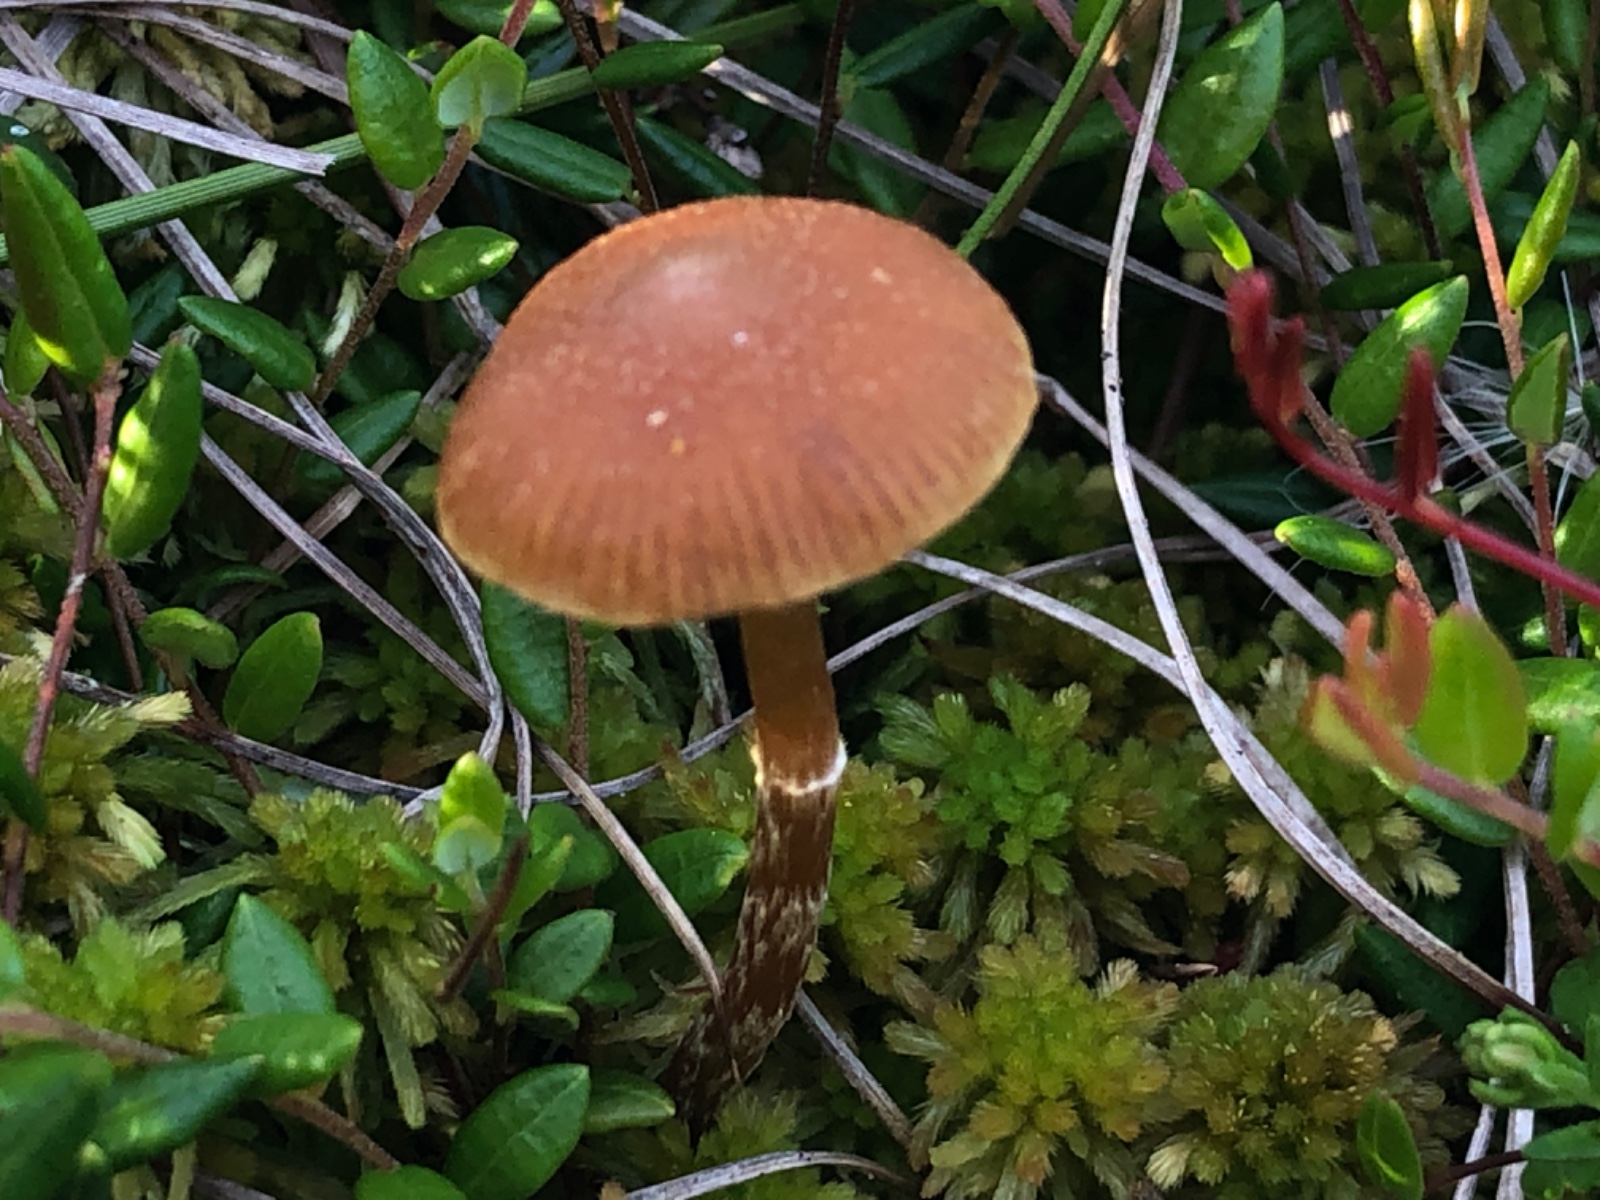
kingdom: Fungi
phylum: Basidiomycota
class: Agaricomycetes
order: Agaricales
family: Hymenogastraceae
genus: Galerina
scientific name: Galerina paludosa
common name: mose-hjelmhat
